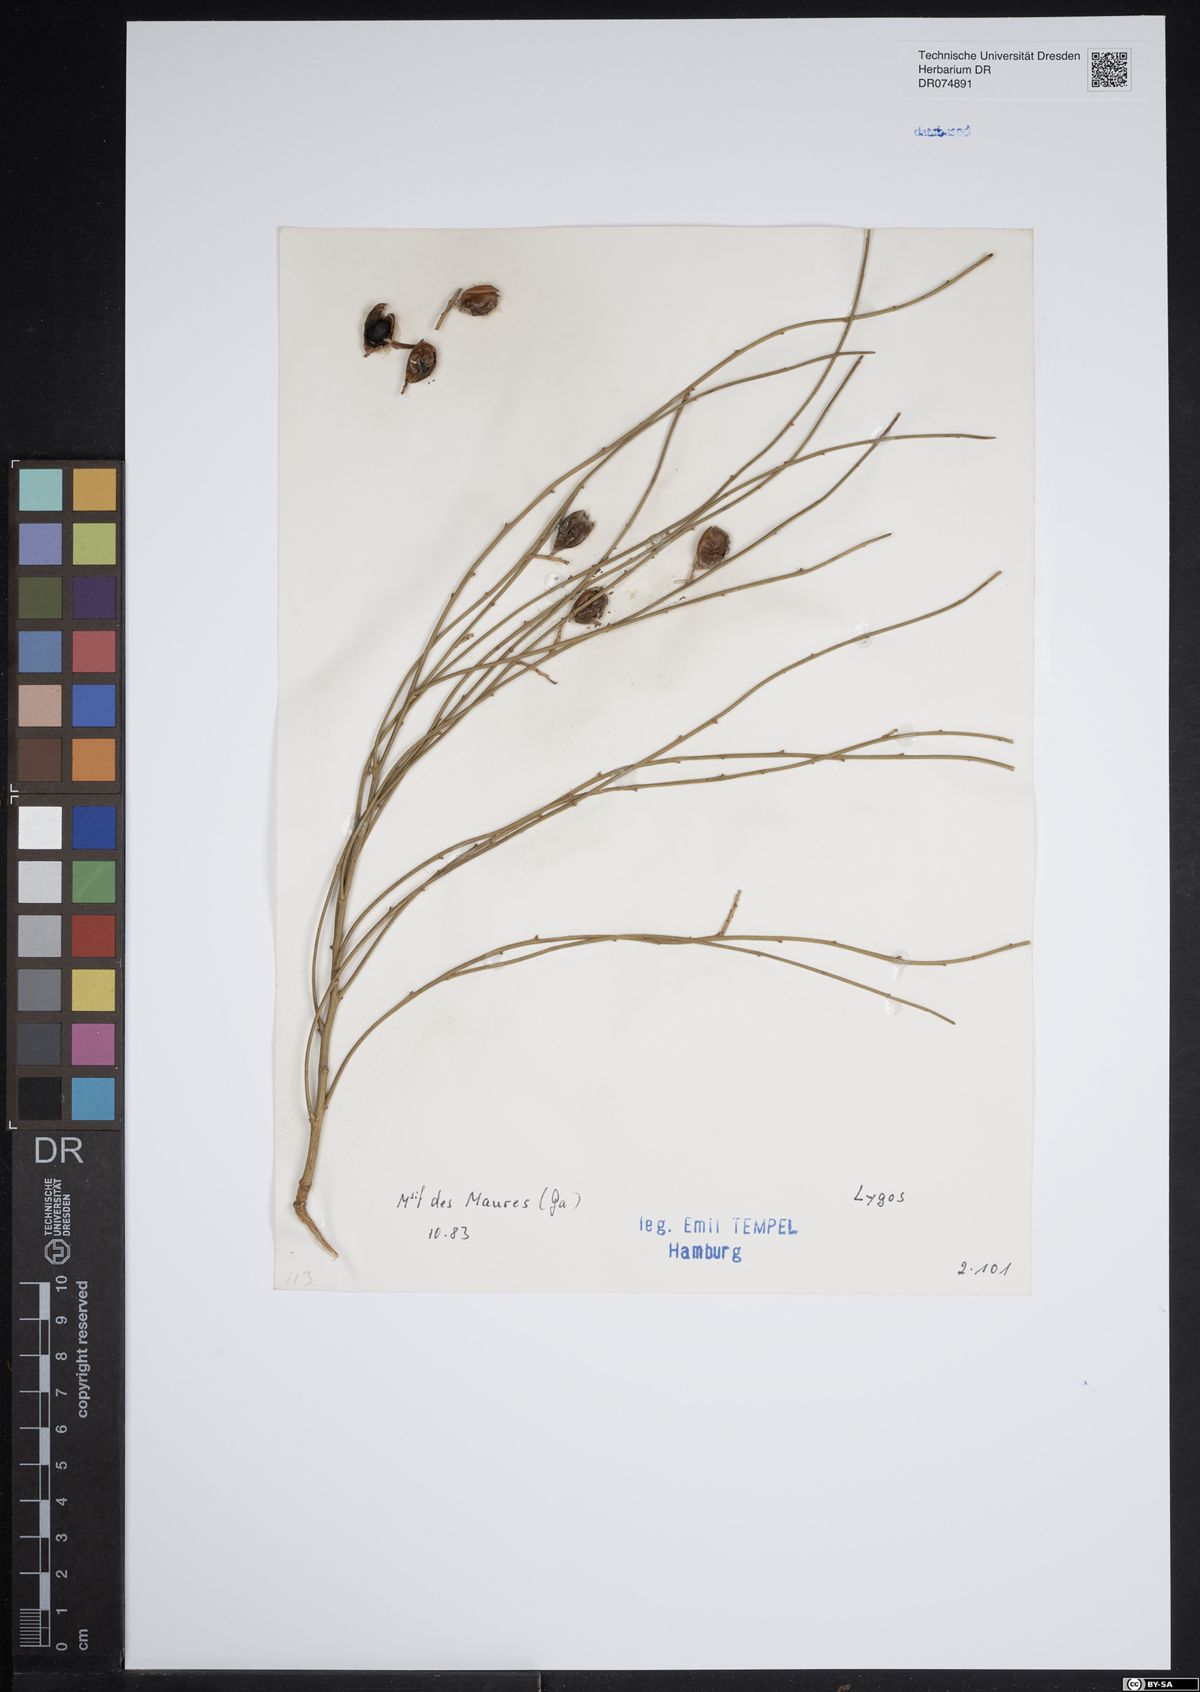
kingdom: Plantae
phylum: Tracheophyta
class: Magnoliopsida
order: Fabales
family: Fabaceae
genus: Retama
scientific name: Retama
